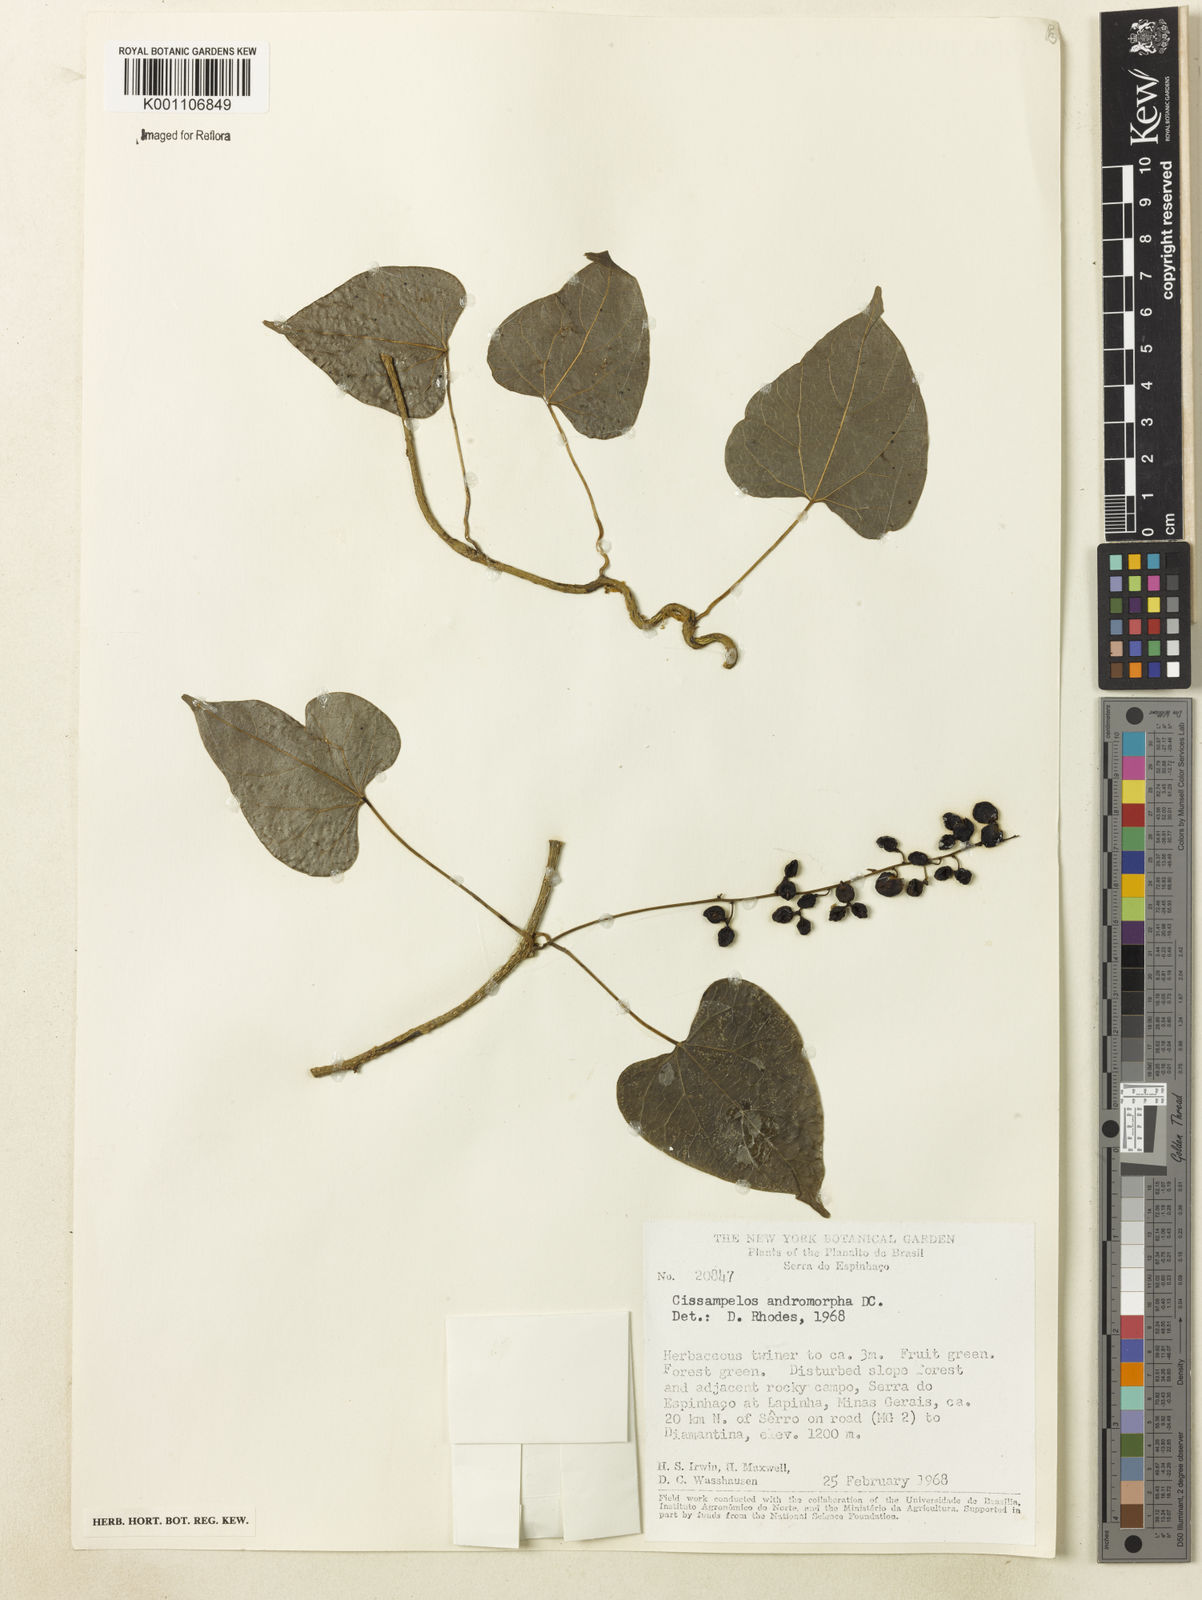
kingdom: Plantae
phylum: Tracheophyta
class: Magnoliopsida
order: Ranunculales
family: Menispermaceae
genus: Cissampelos
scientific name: Cissampelos andromorpha
